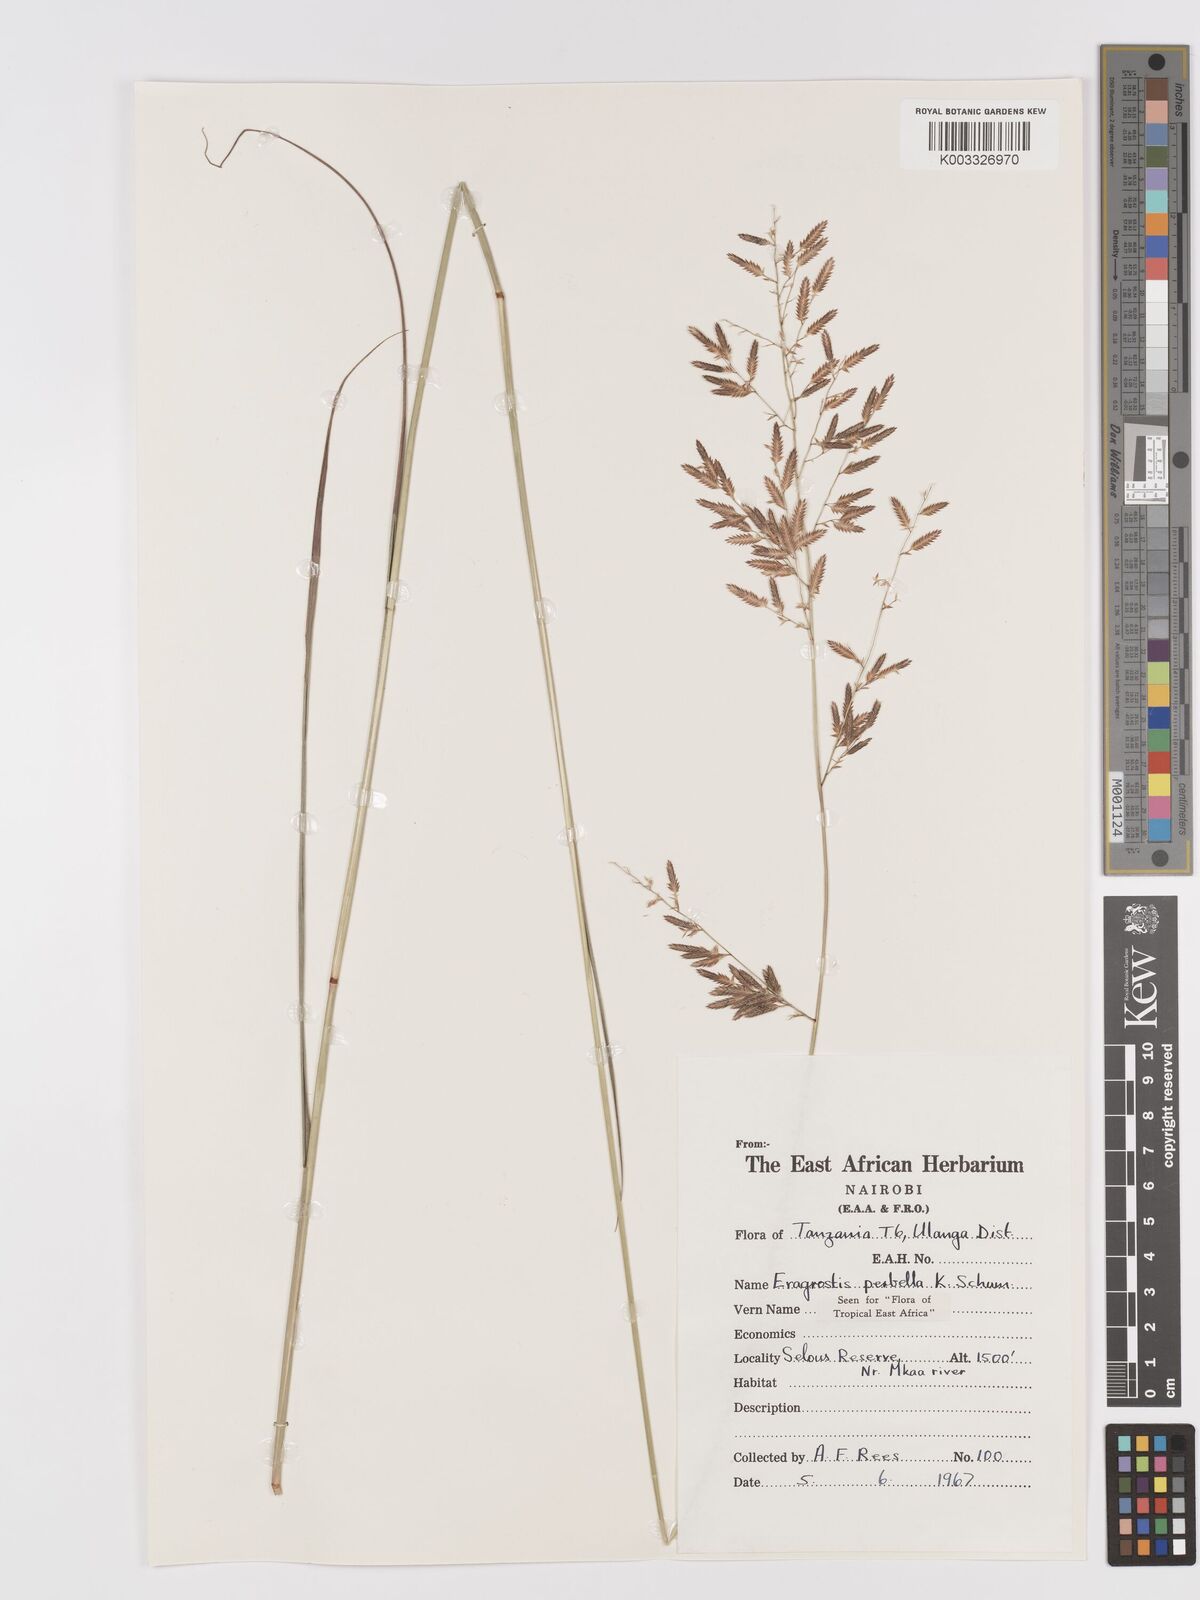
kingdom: Plantae
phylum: Tracheophyta
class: Liliopsida
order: Poales
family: Poaceae
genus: Eragrostis
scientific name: Eragrostis perbella
